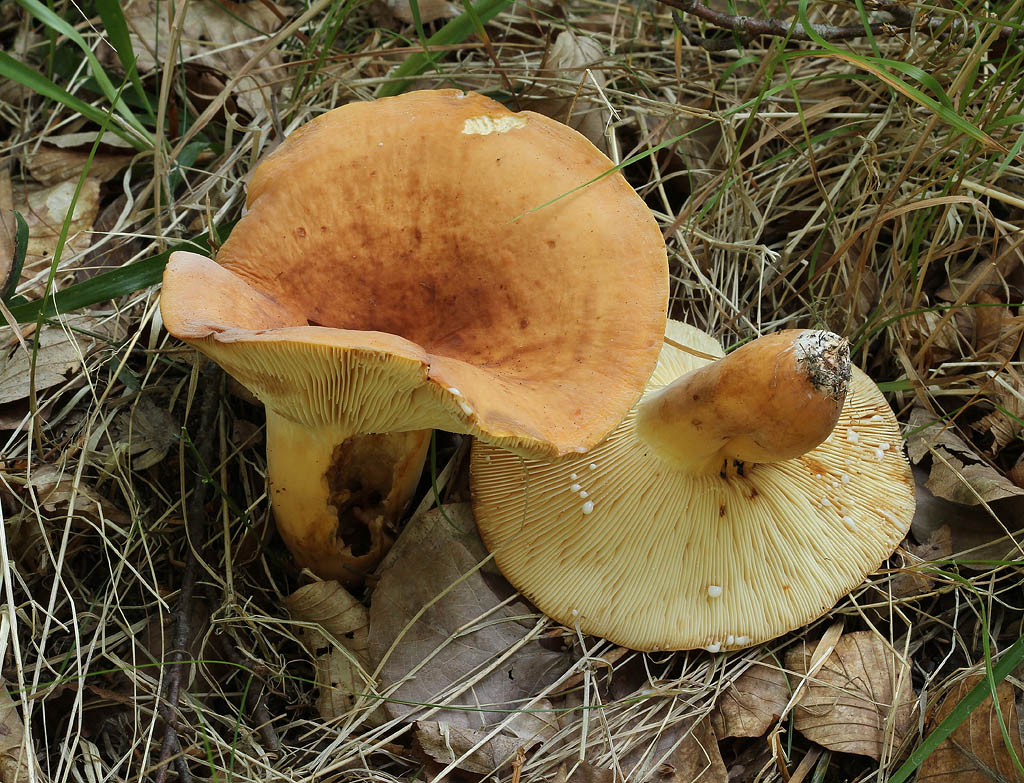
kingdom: Fungi
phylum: Basidiomycota
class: Agaricomycetes
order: Russulales
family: Russulaceae
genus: Lactifluus
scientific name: Lactifluus volemus
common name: spiselig mælkehat
